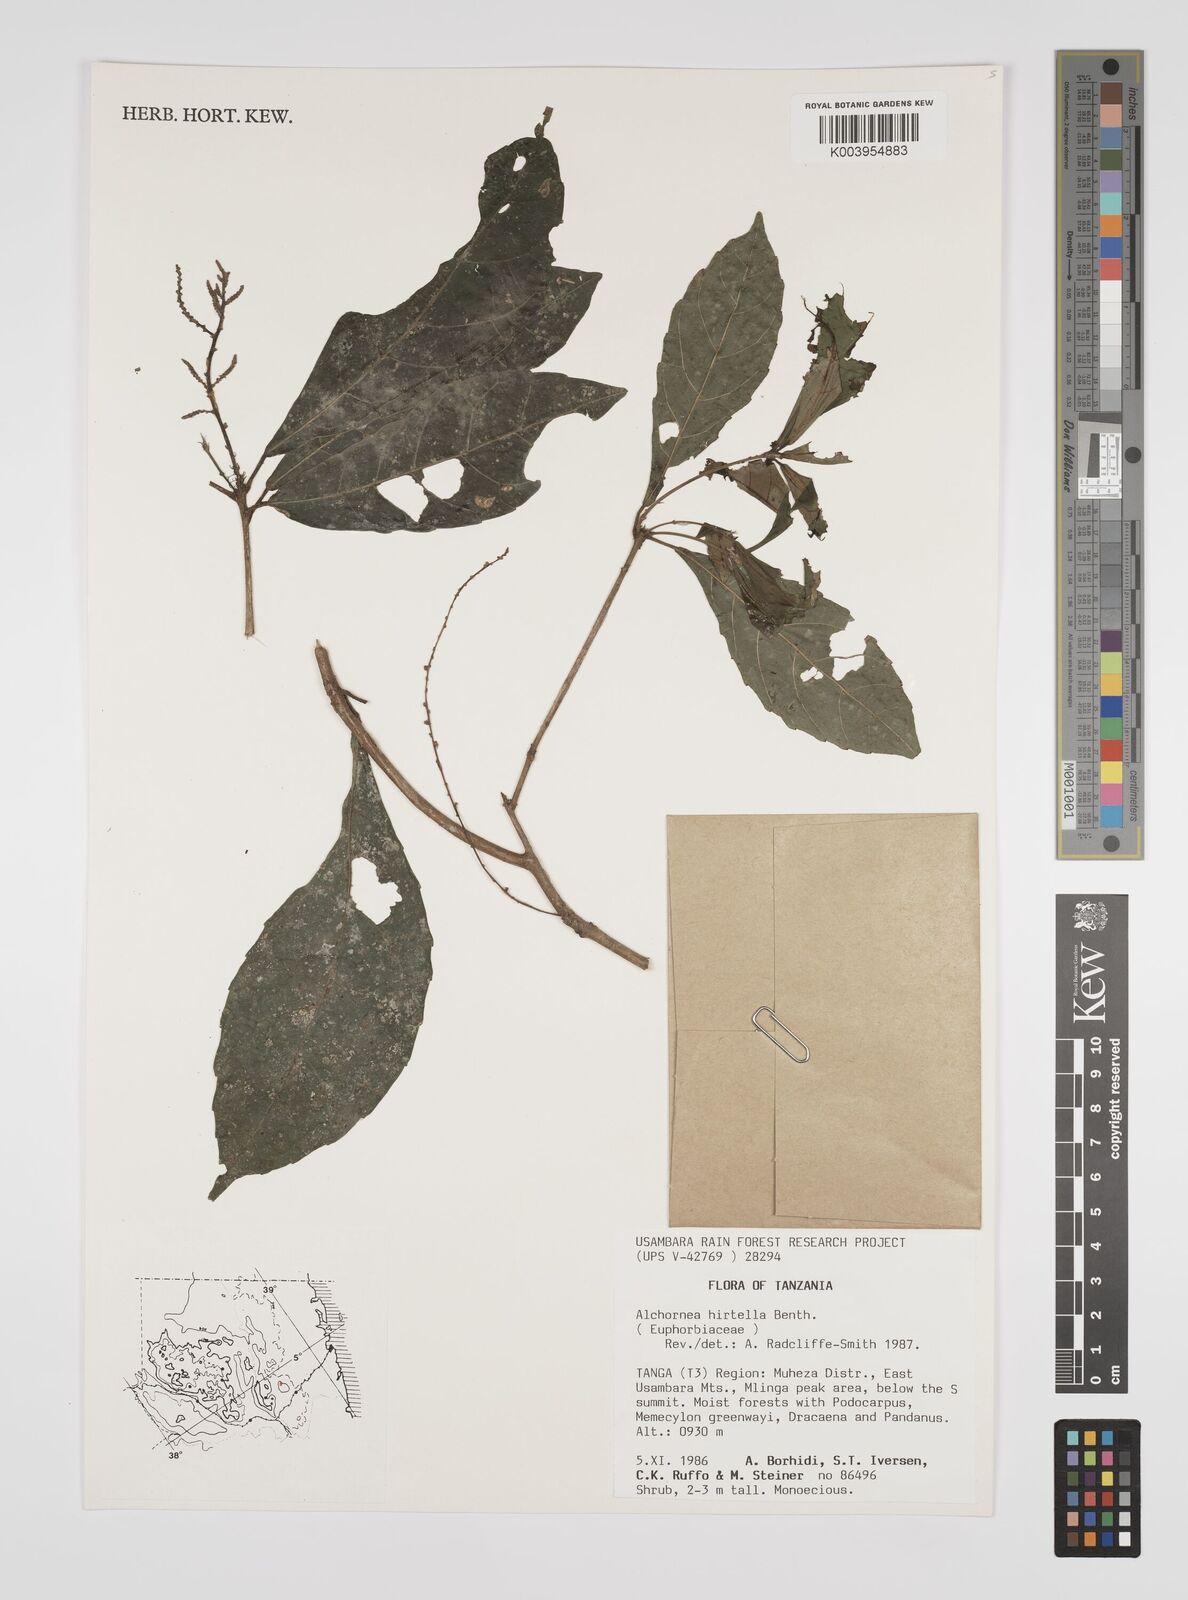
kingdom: Plantae
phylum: Tracheophyta
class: Magnoliopsida
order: Malpighiales
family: Euphorbiaceae
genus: Alchornea
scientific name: Alchornea hirtella
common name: Forest bead-string
